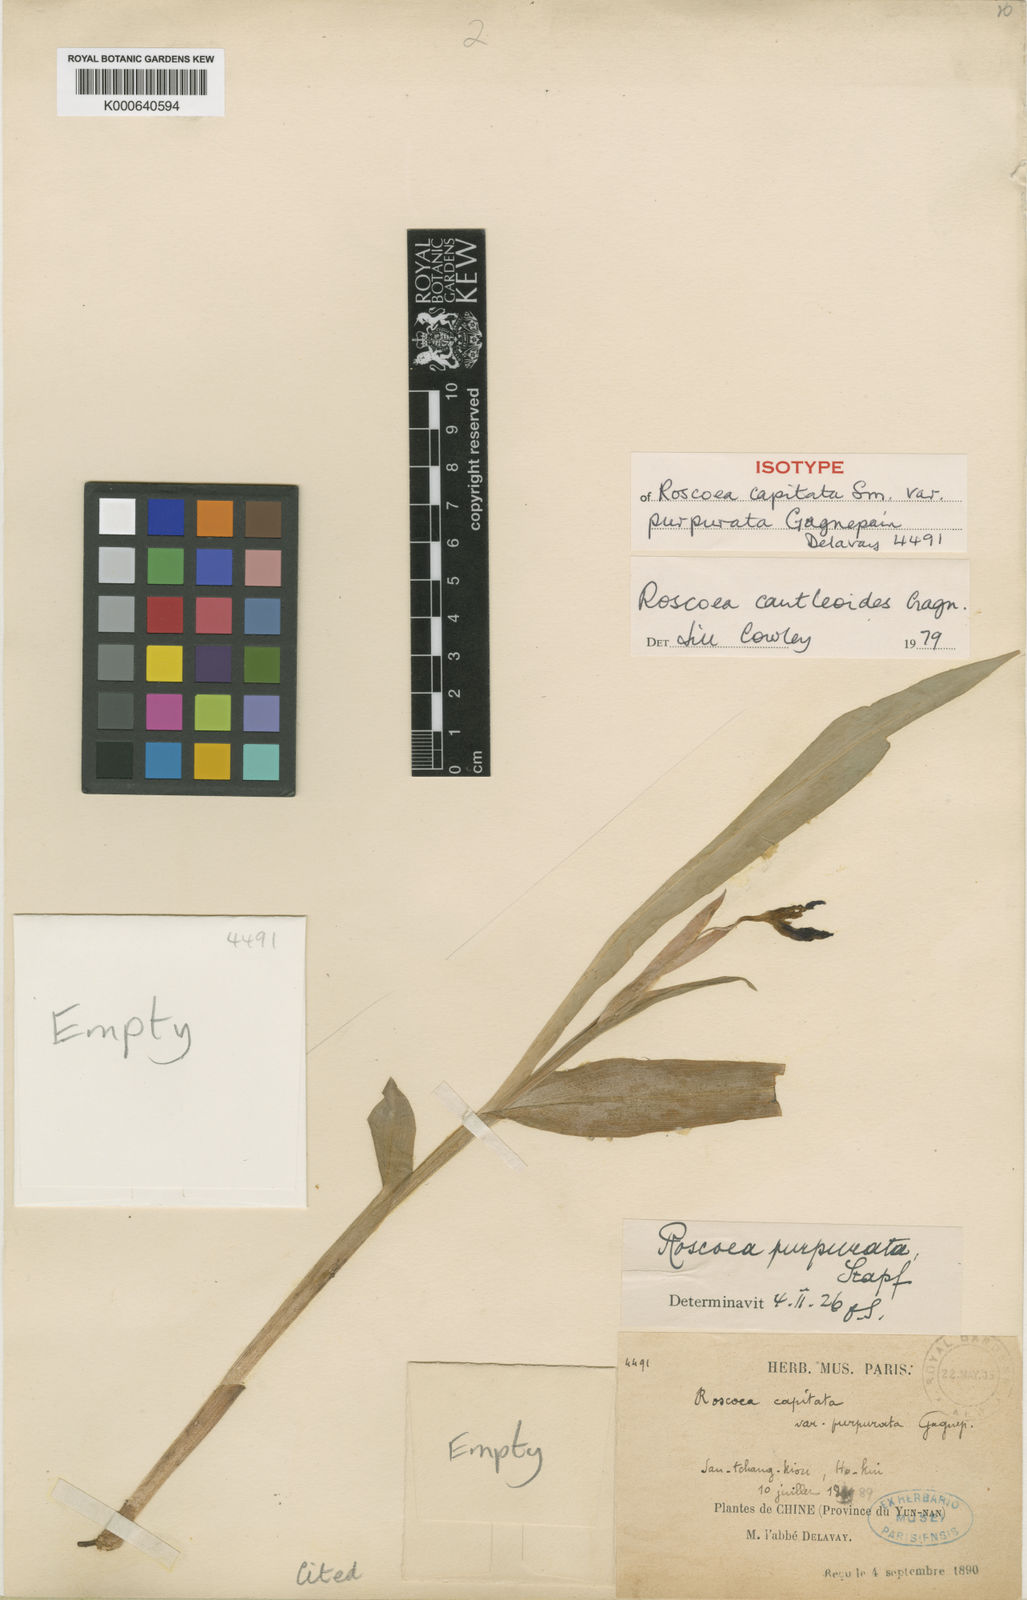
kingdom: Plantae
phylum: Tracheophyta
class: Liliopsida
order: Zingiberales
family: Zingiberaceae
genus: Roscoea
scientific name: Roscoea cautleyoides
